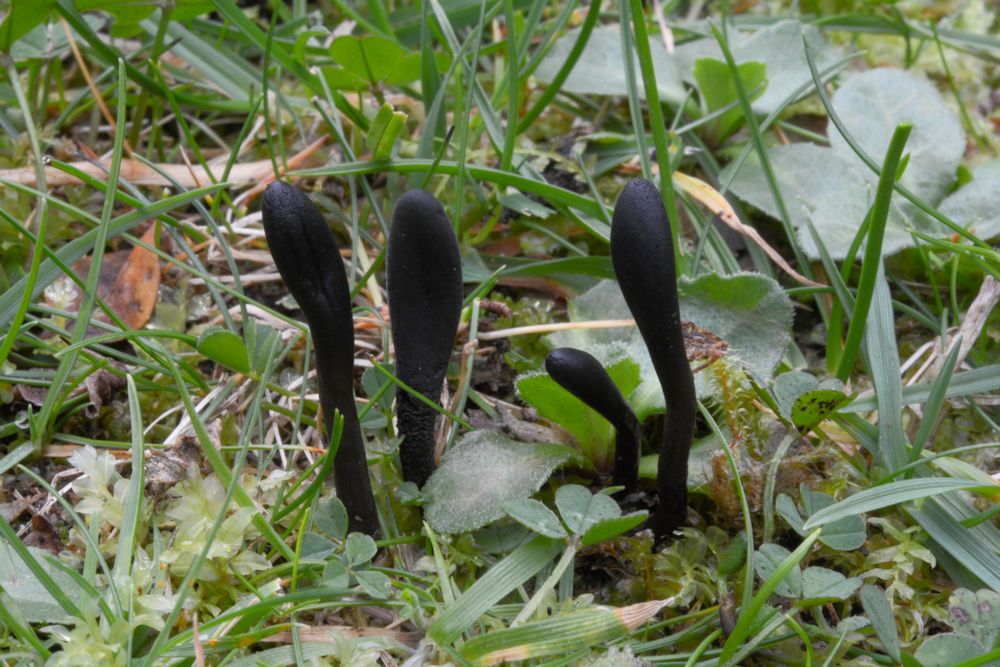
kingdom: Fungi
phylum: Ascomycota
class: Geoglossomycetes
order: Geoglossales
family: Geoglossaceae
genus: Geoglossum
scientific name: Geoglossum umbratile
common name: slank jordtunge
